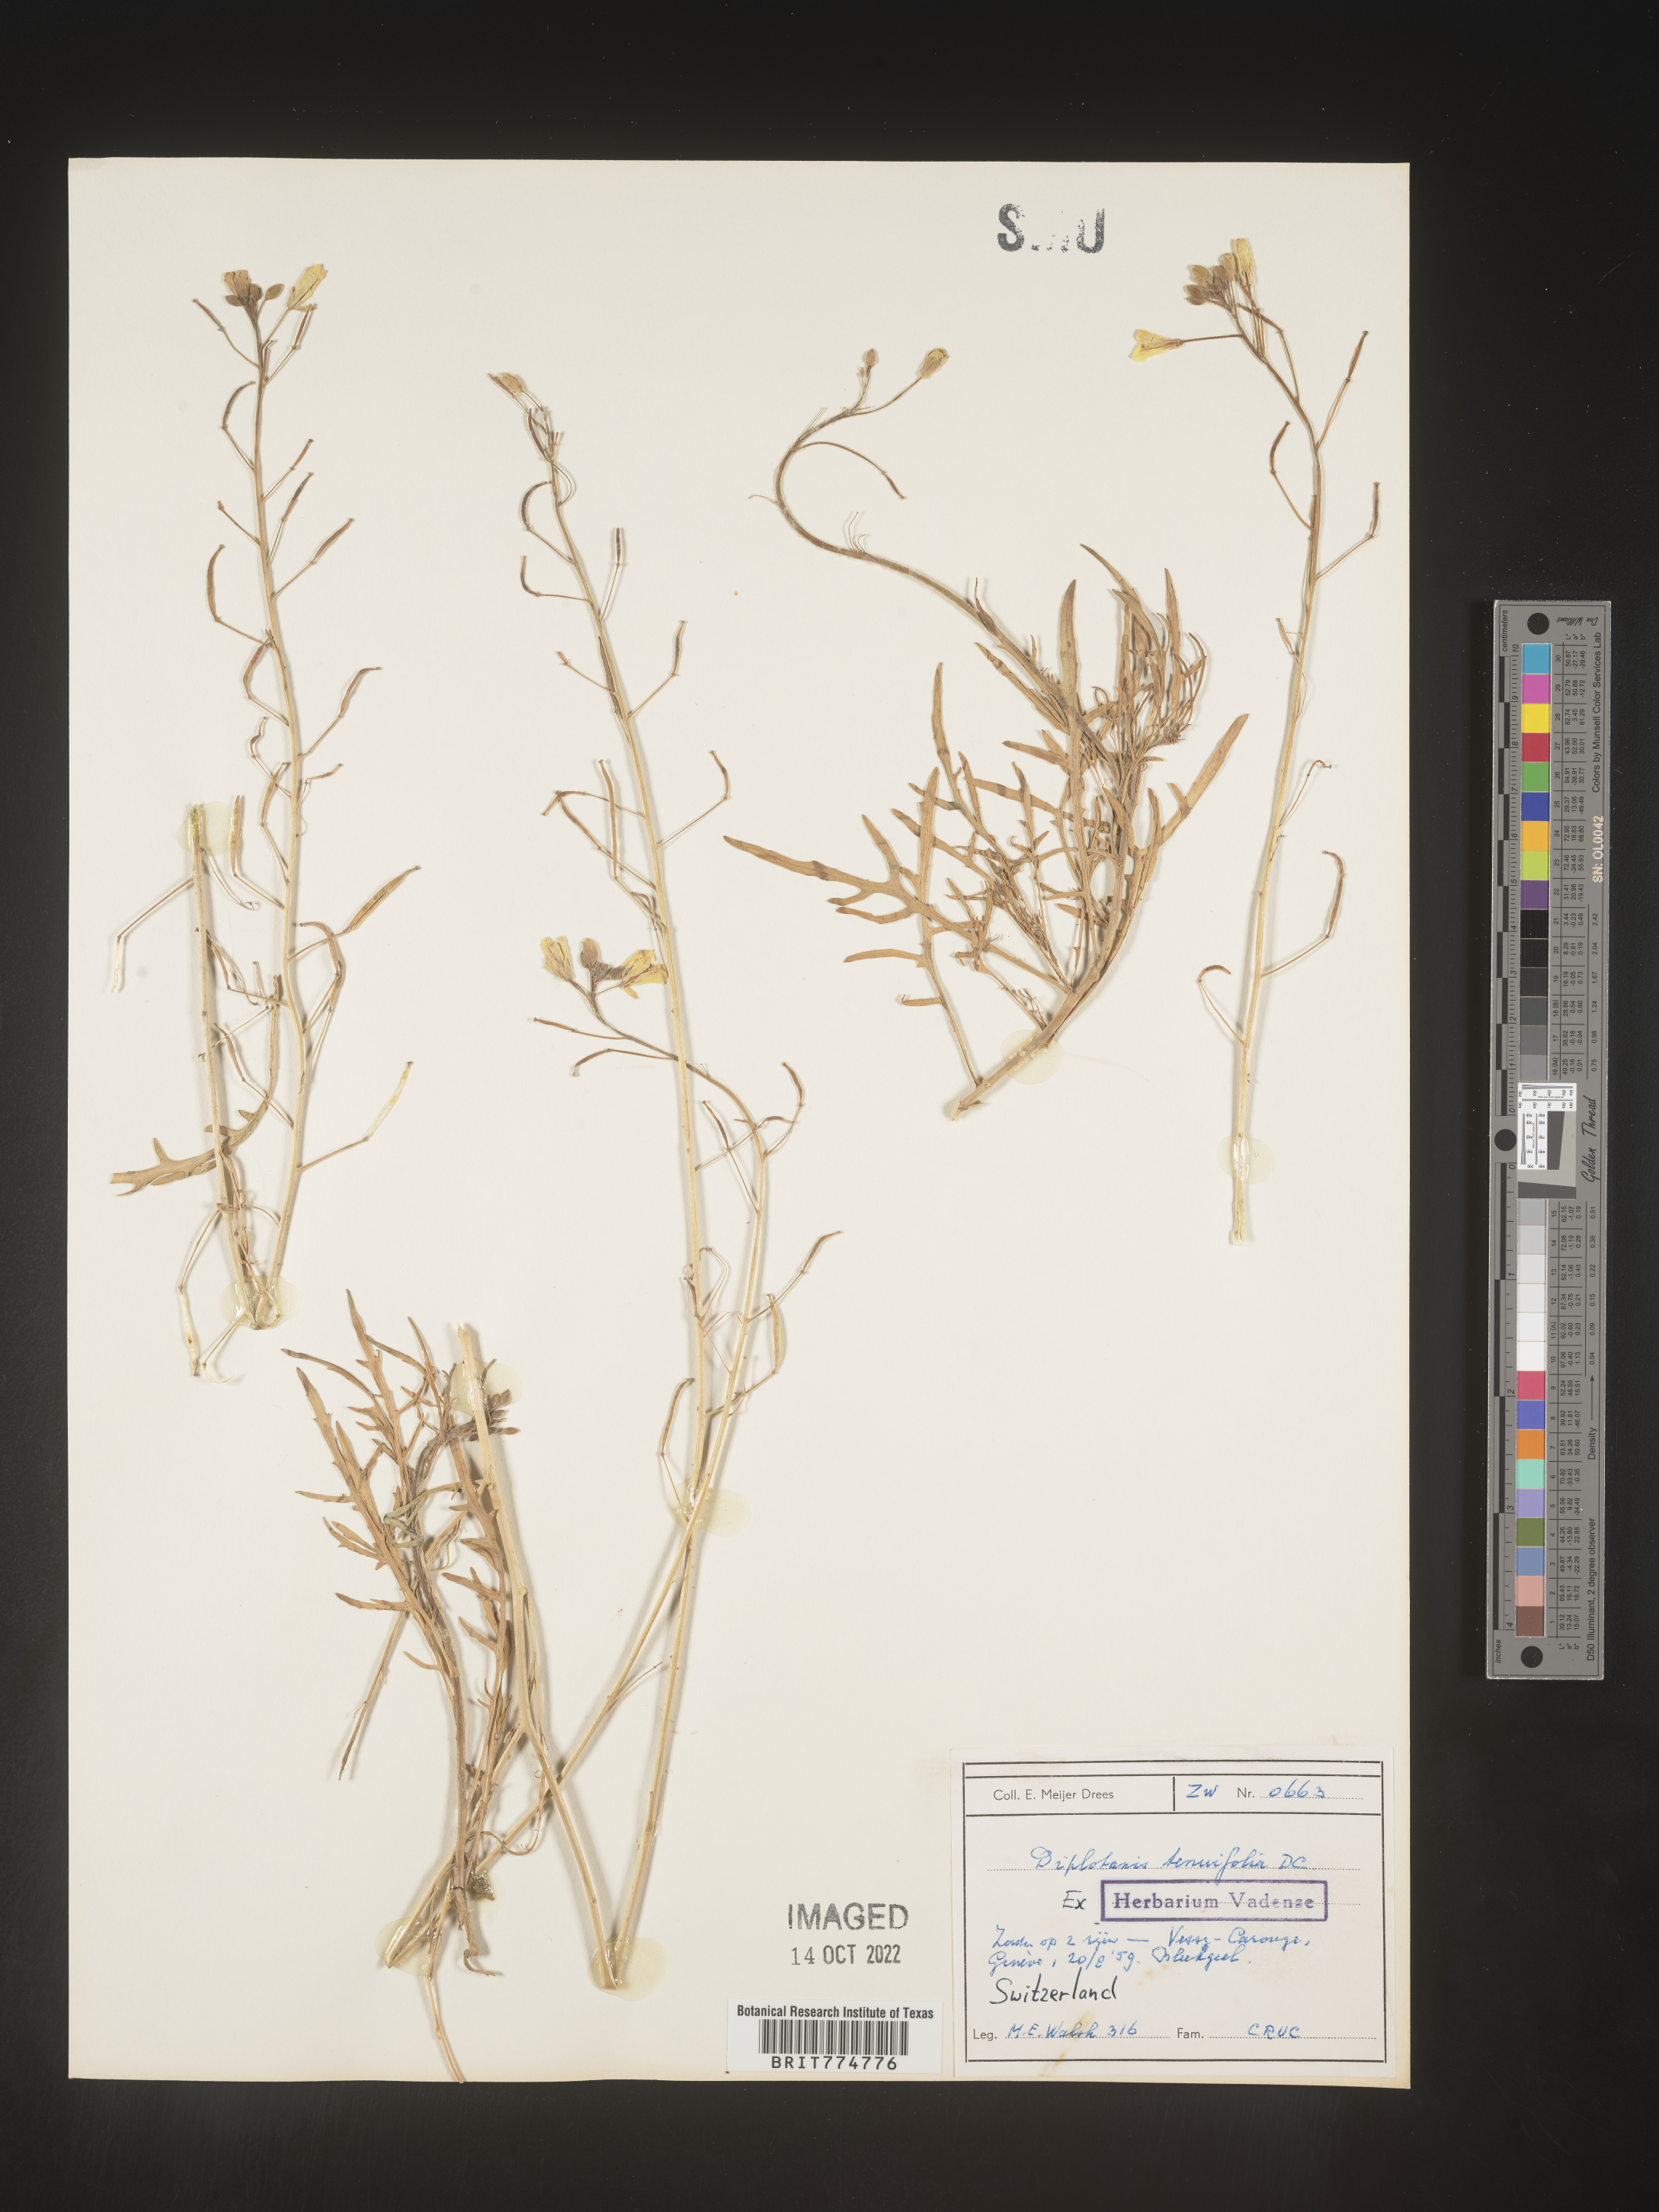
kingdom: Plantae
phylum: Tracheophyta
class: Magnoliopsida
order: Brassicales
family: Brassicaceae
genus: Diplotaxis
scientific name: Diplotaxis
